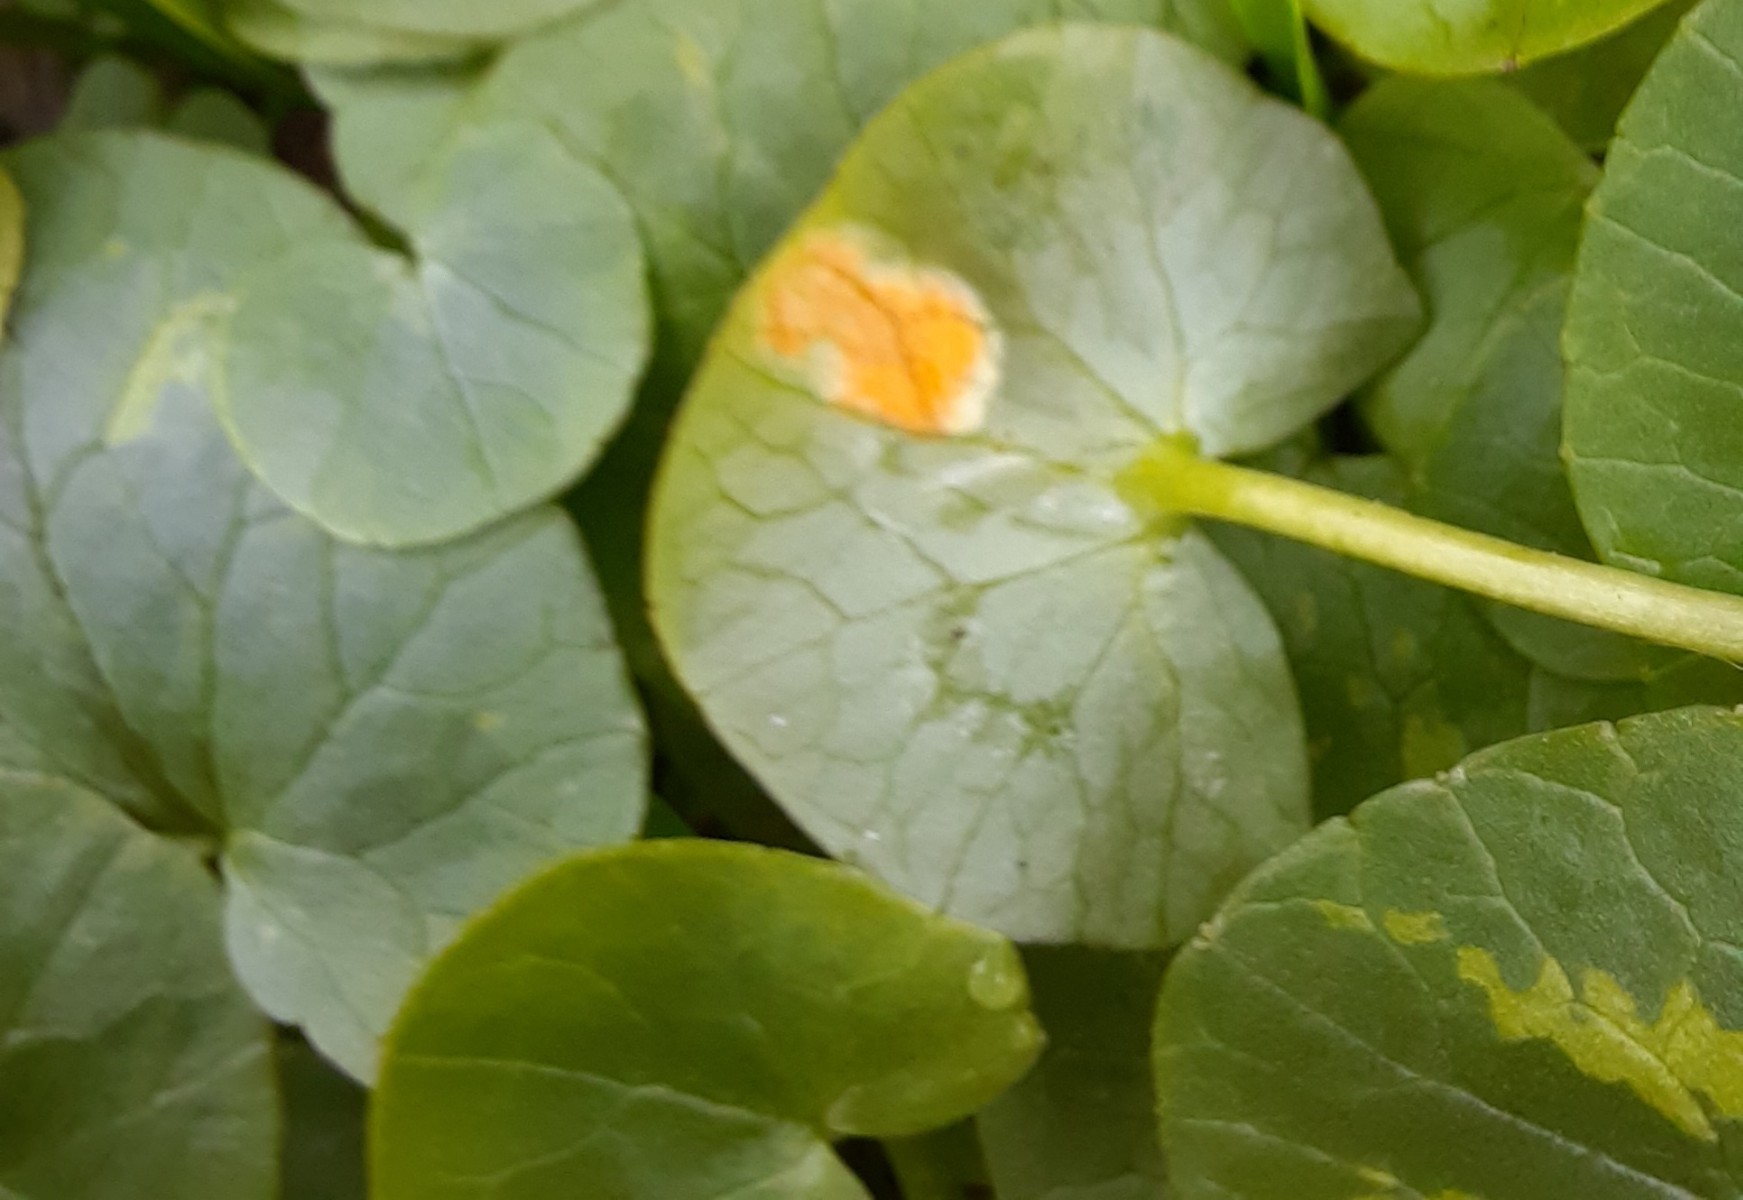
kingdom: Fungi
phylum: Basidiomycota
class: Pucciniomycetes
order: Pucciniales
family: Pucciniaceae
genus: Uromyces
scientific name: Uromyces dactylidis
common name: ranunkel-encellerust
